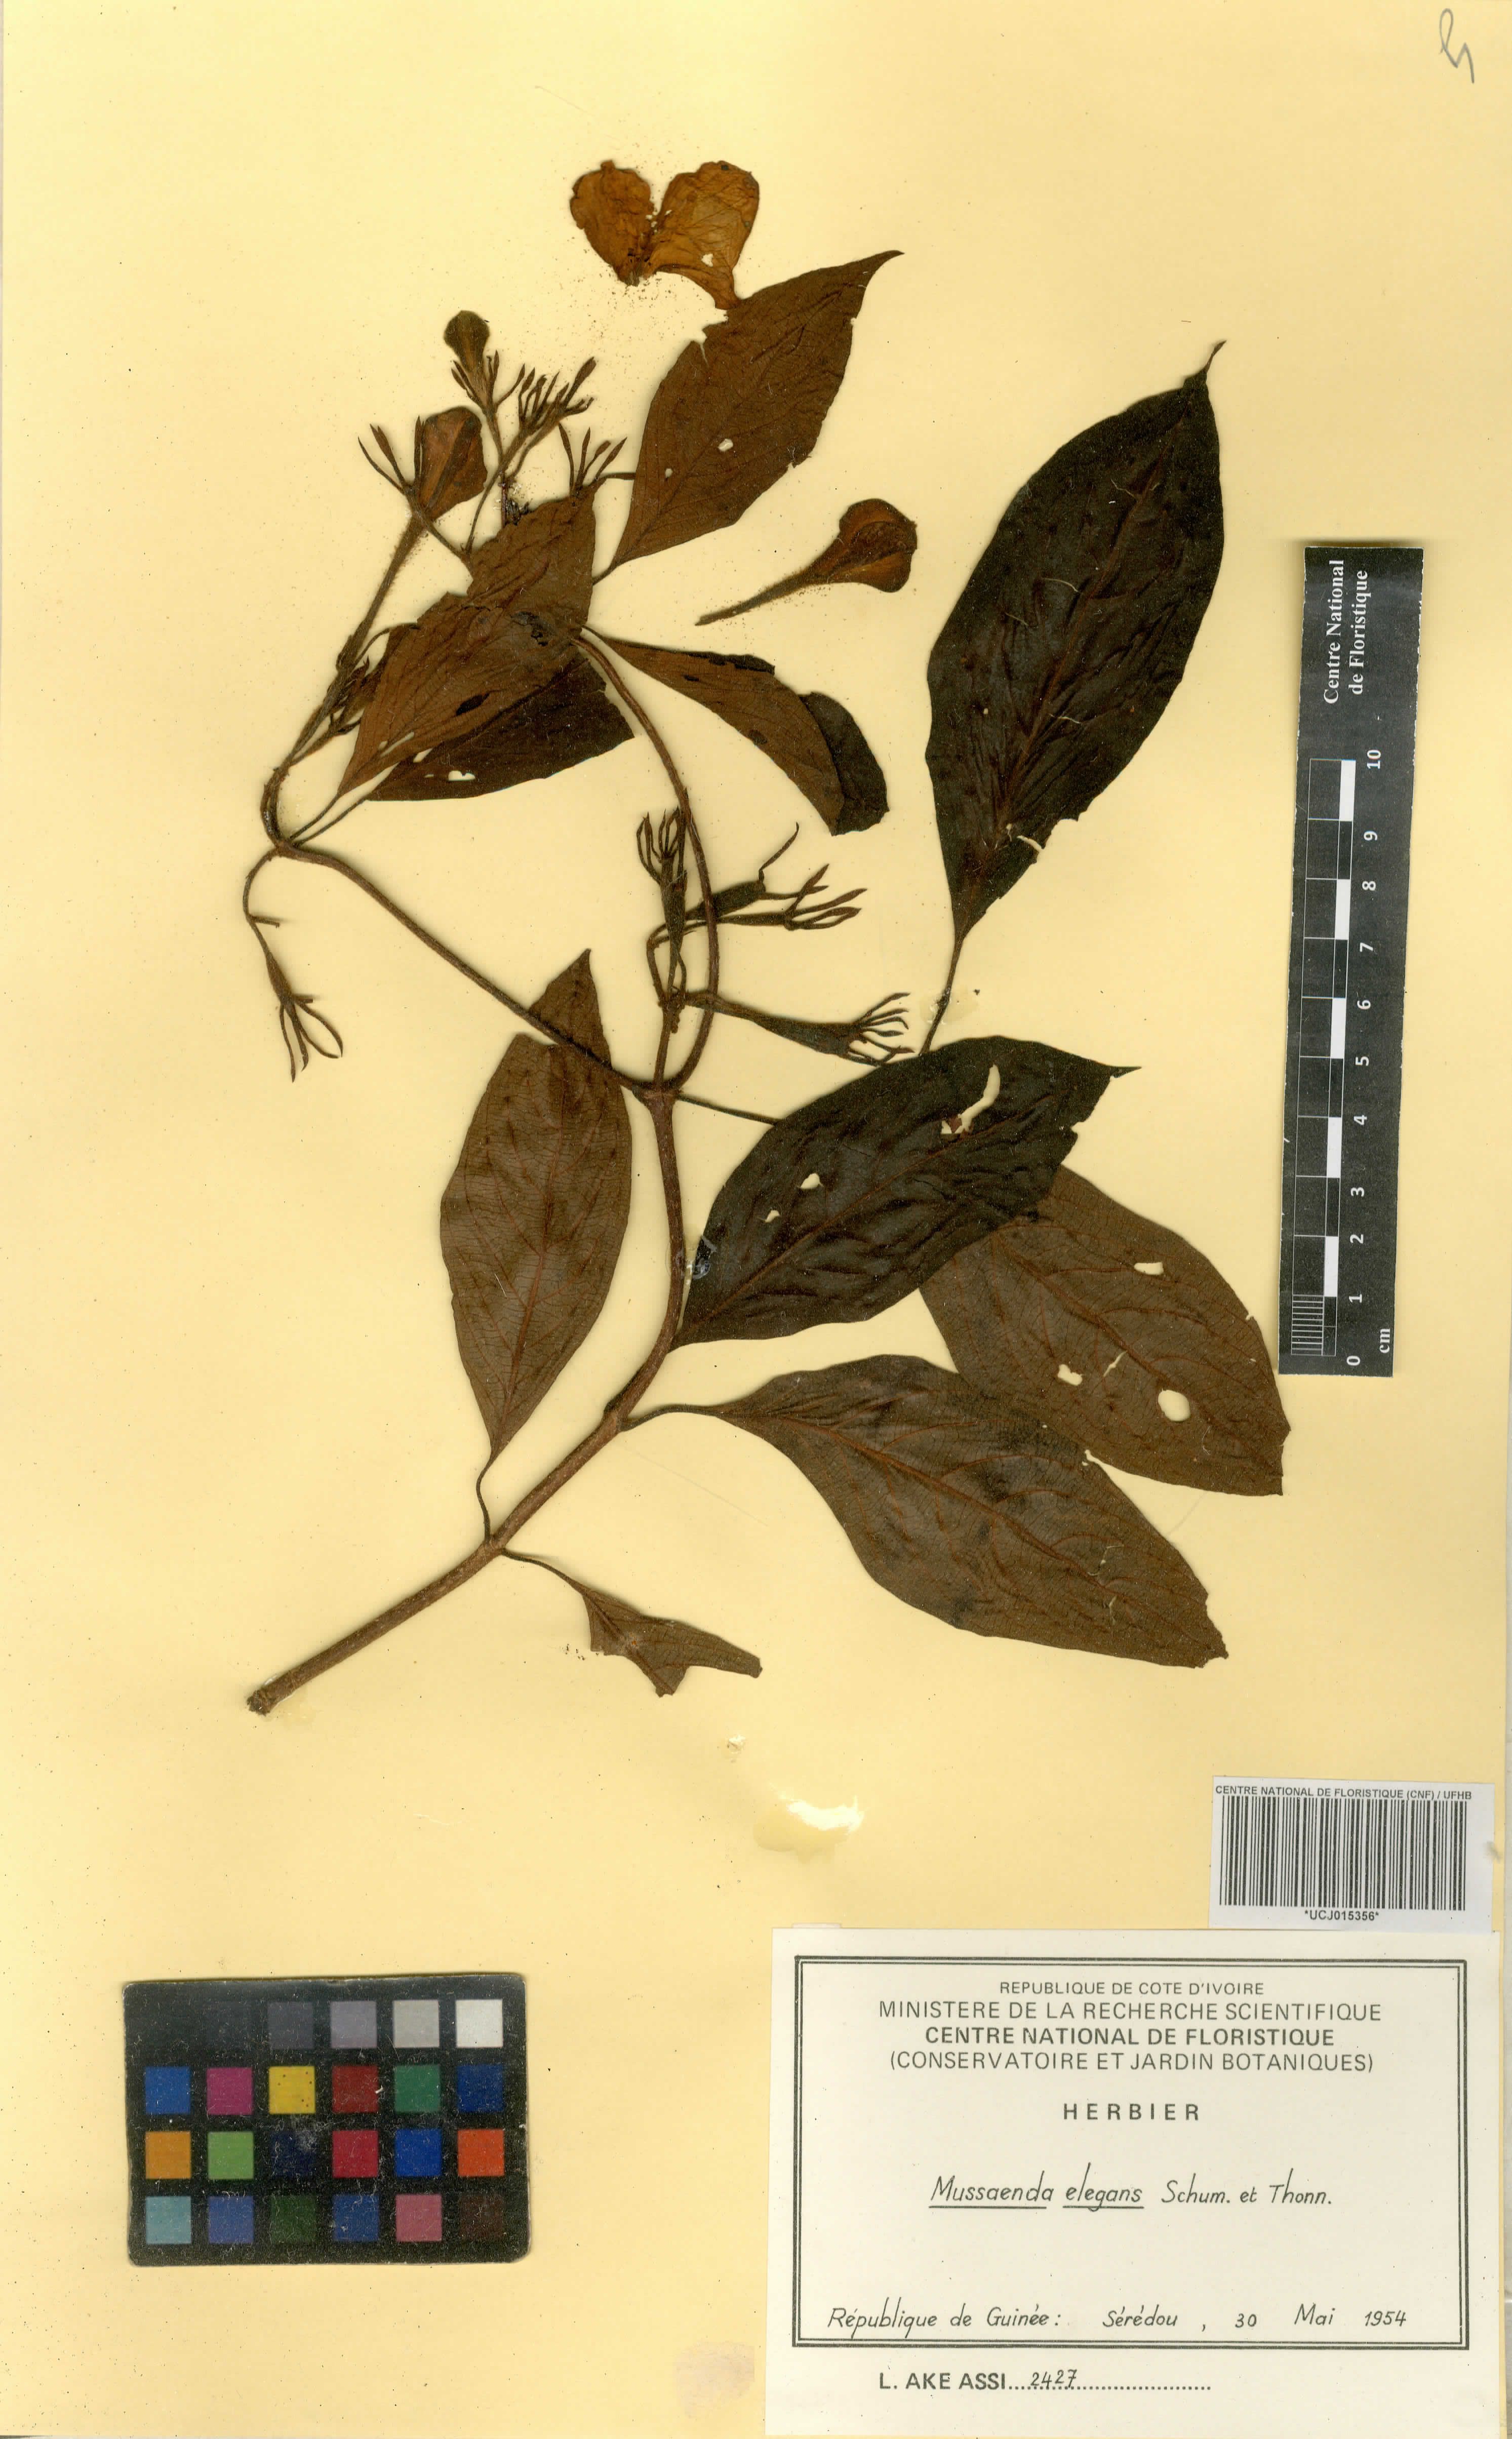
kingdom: Plantae
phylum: Tracheophyta
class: Magnoliopsida
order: Gentianales
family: Rubiaceae
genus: Mussaenda
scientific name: Mussaenda elegans
